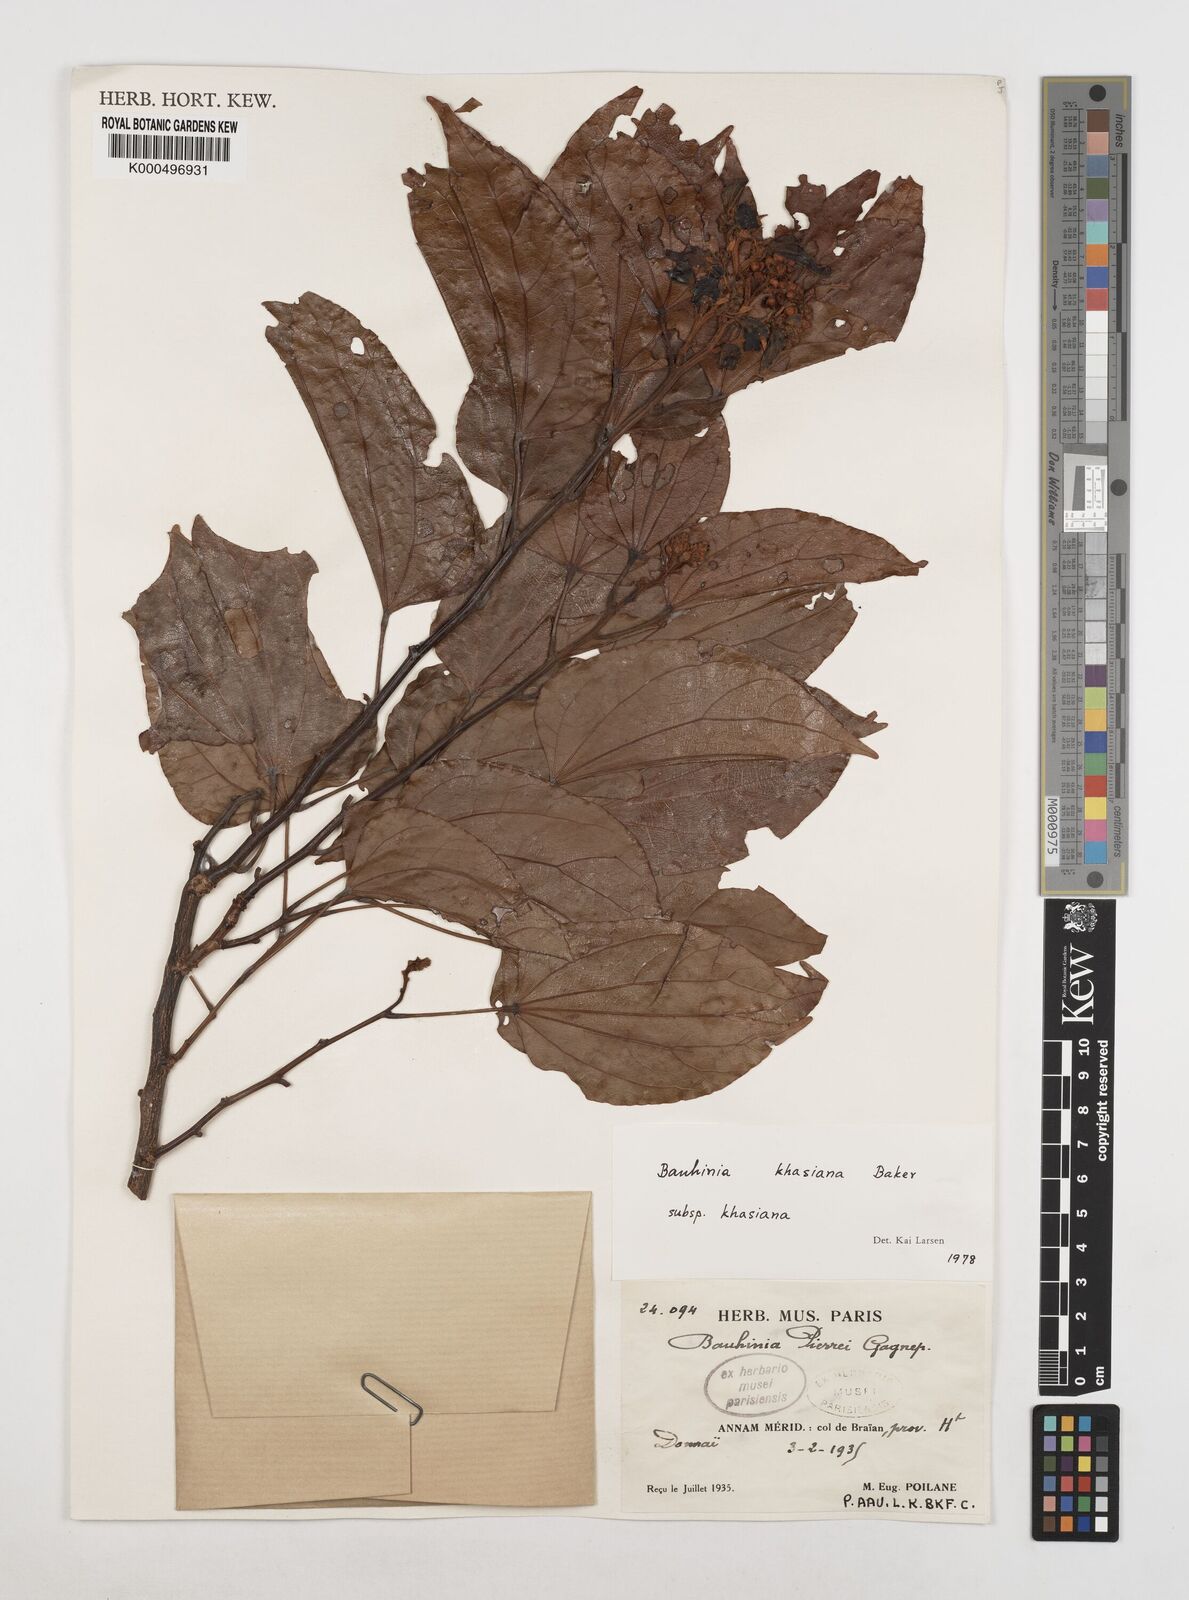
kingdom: Plantae
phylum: Tracheophyta
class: Magnoliopsida
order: Fabales
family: Fabaceae
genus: Bauhinia
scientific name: Bauhinia
